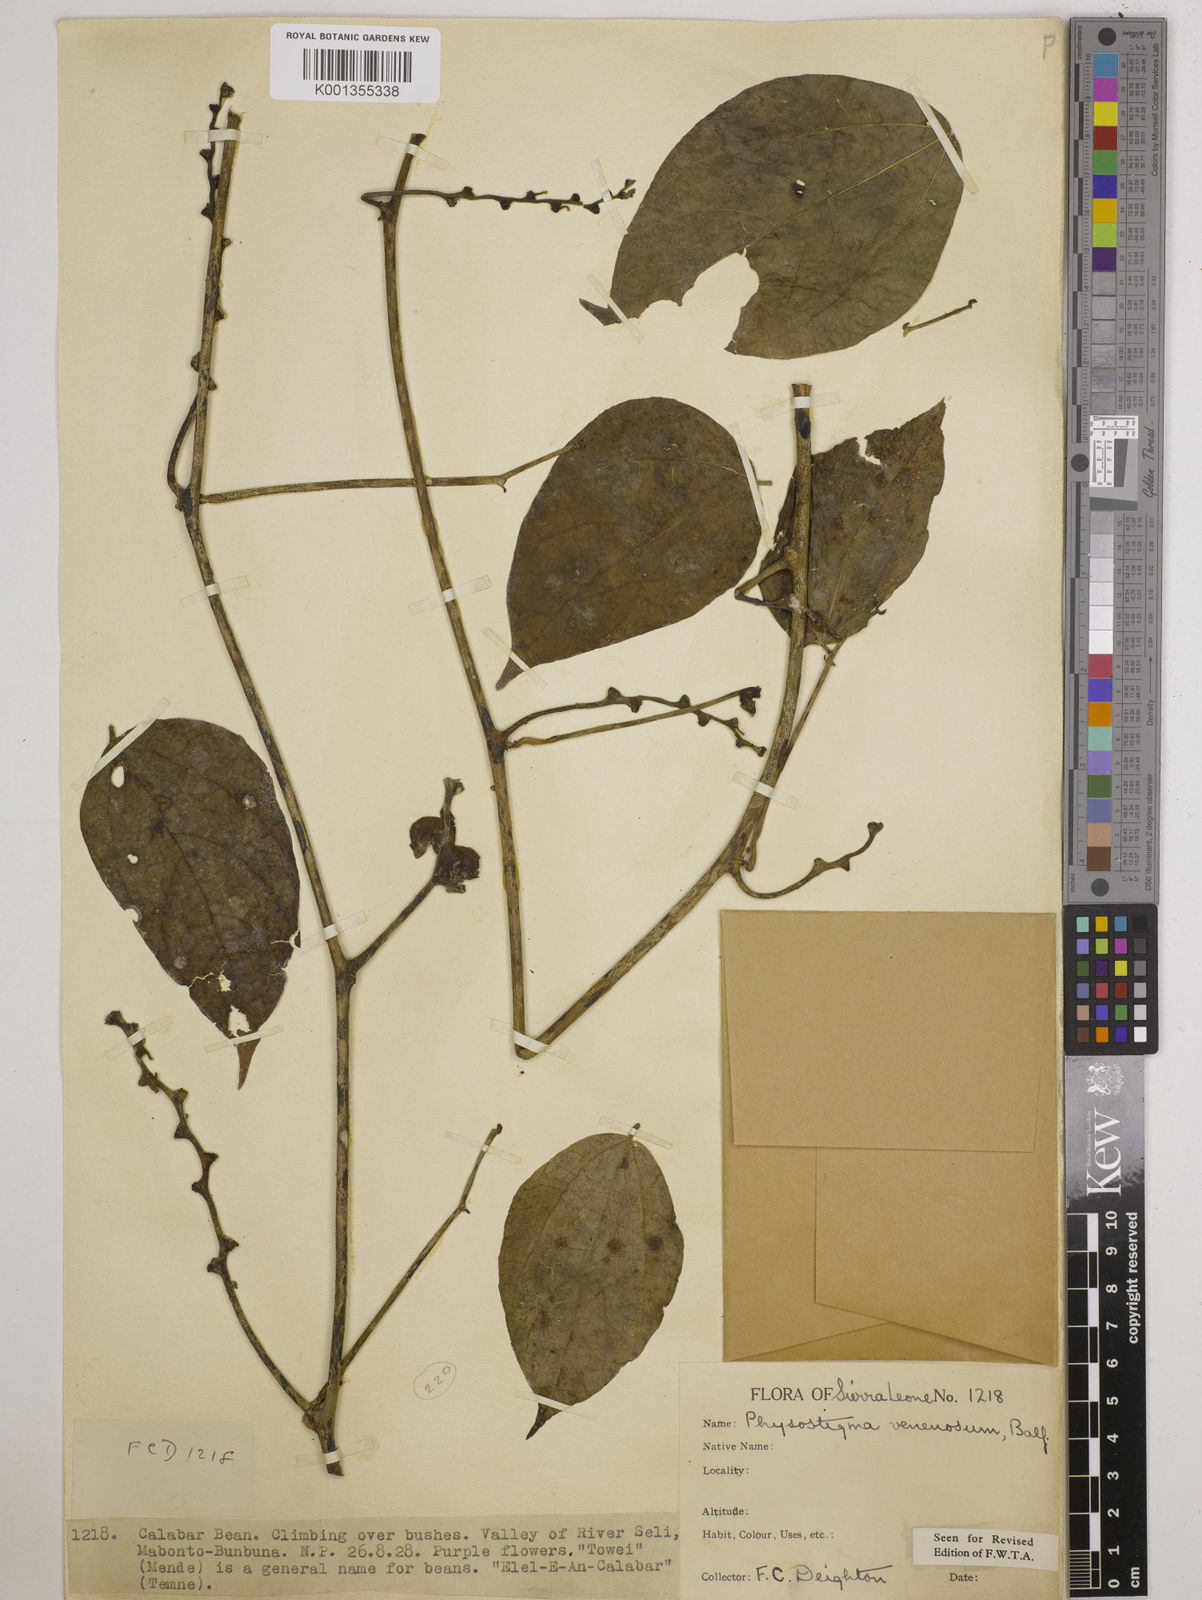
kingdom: Plantae
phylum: Tracheophyta
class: Magnoliopsida
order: Fabales
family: Fabaceae
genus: Physostigma
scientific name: Physostigma venenosum
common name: Calabar-bean
